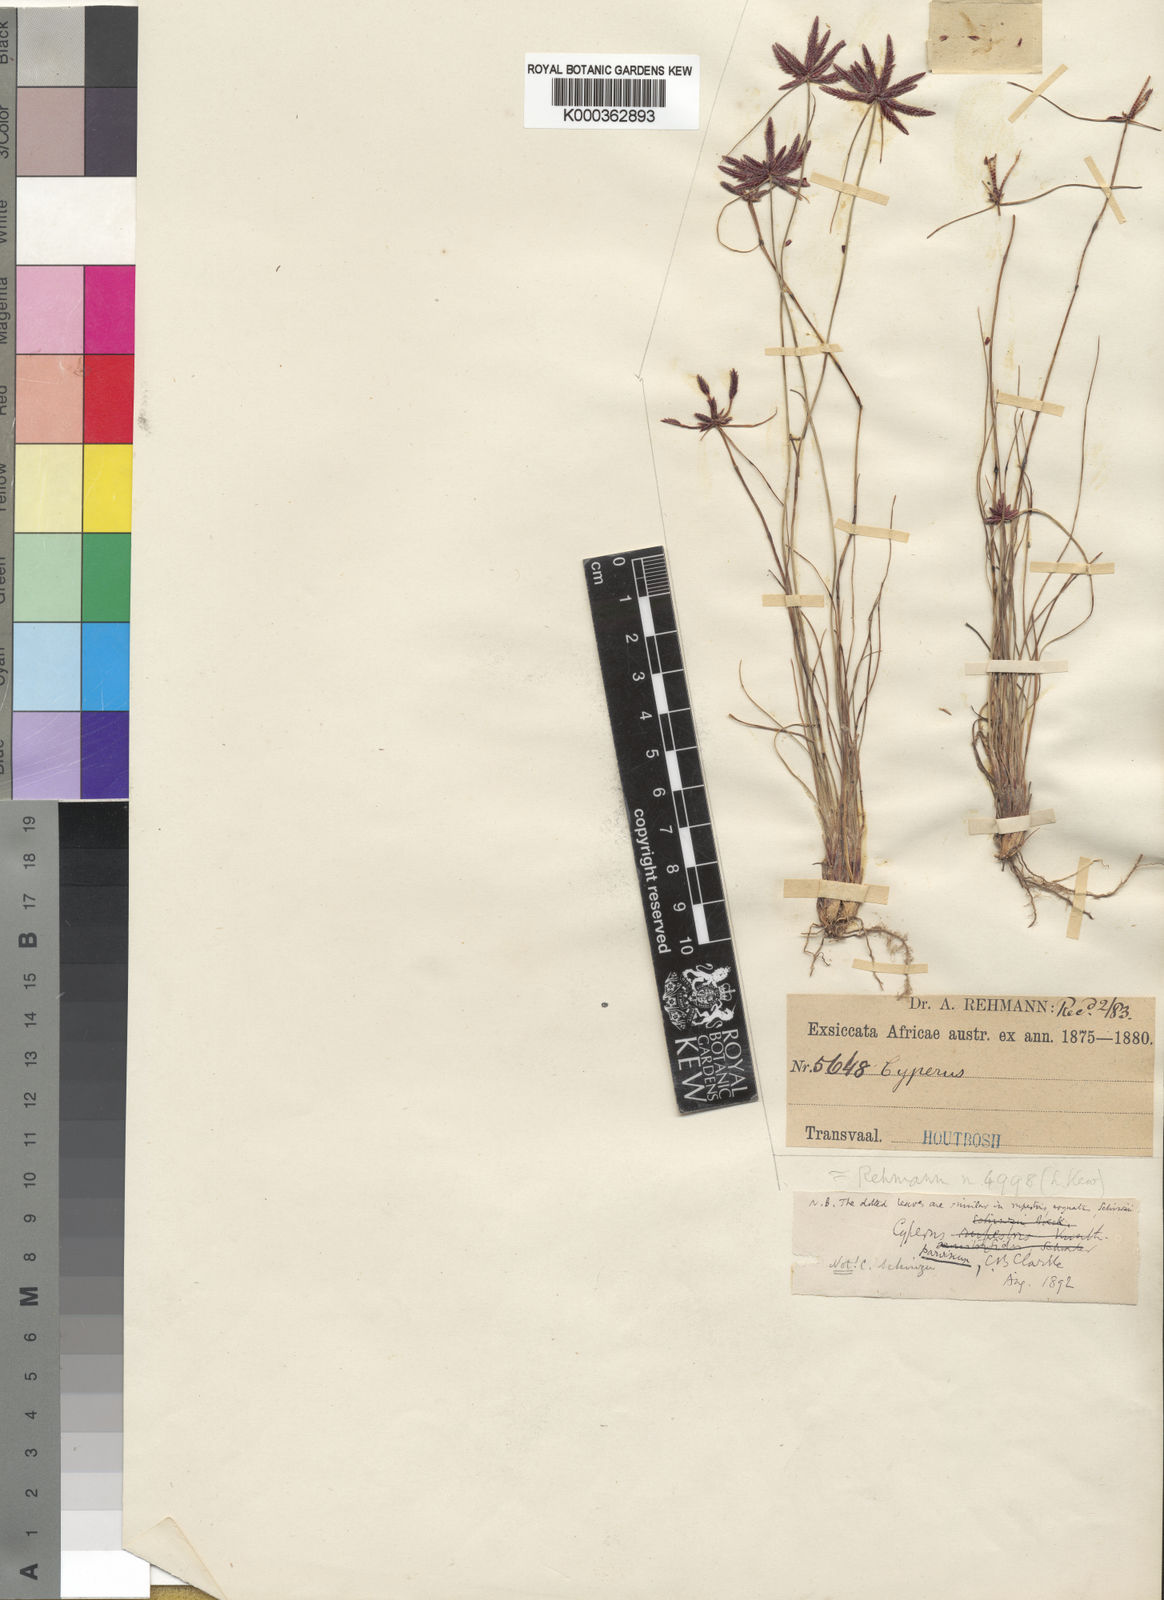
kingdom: Plantae
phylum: Tracheophyta
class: Liliopsida
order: Poales
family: Cyperaceae
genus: Cyperus
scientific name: Cyperus rupestris
